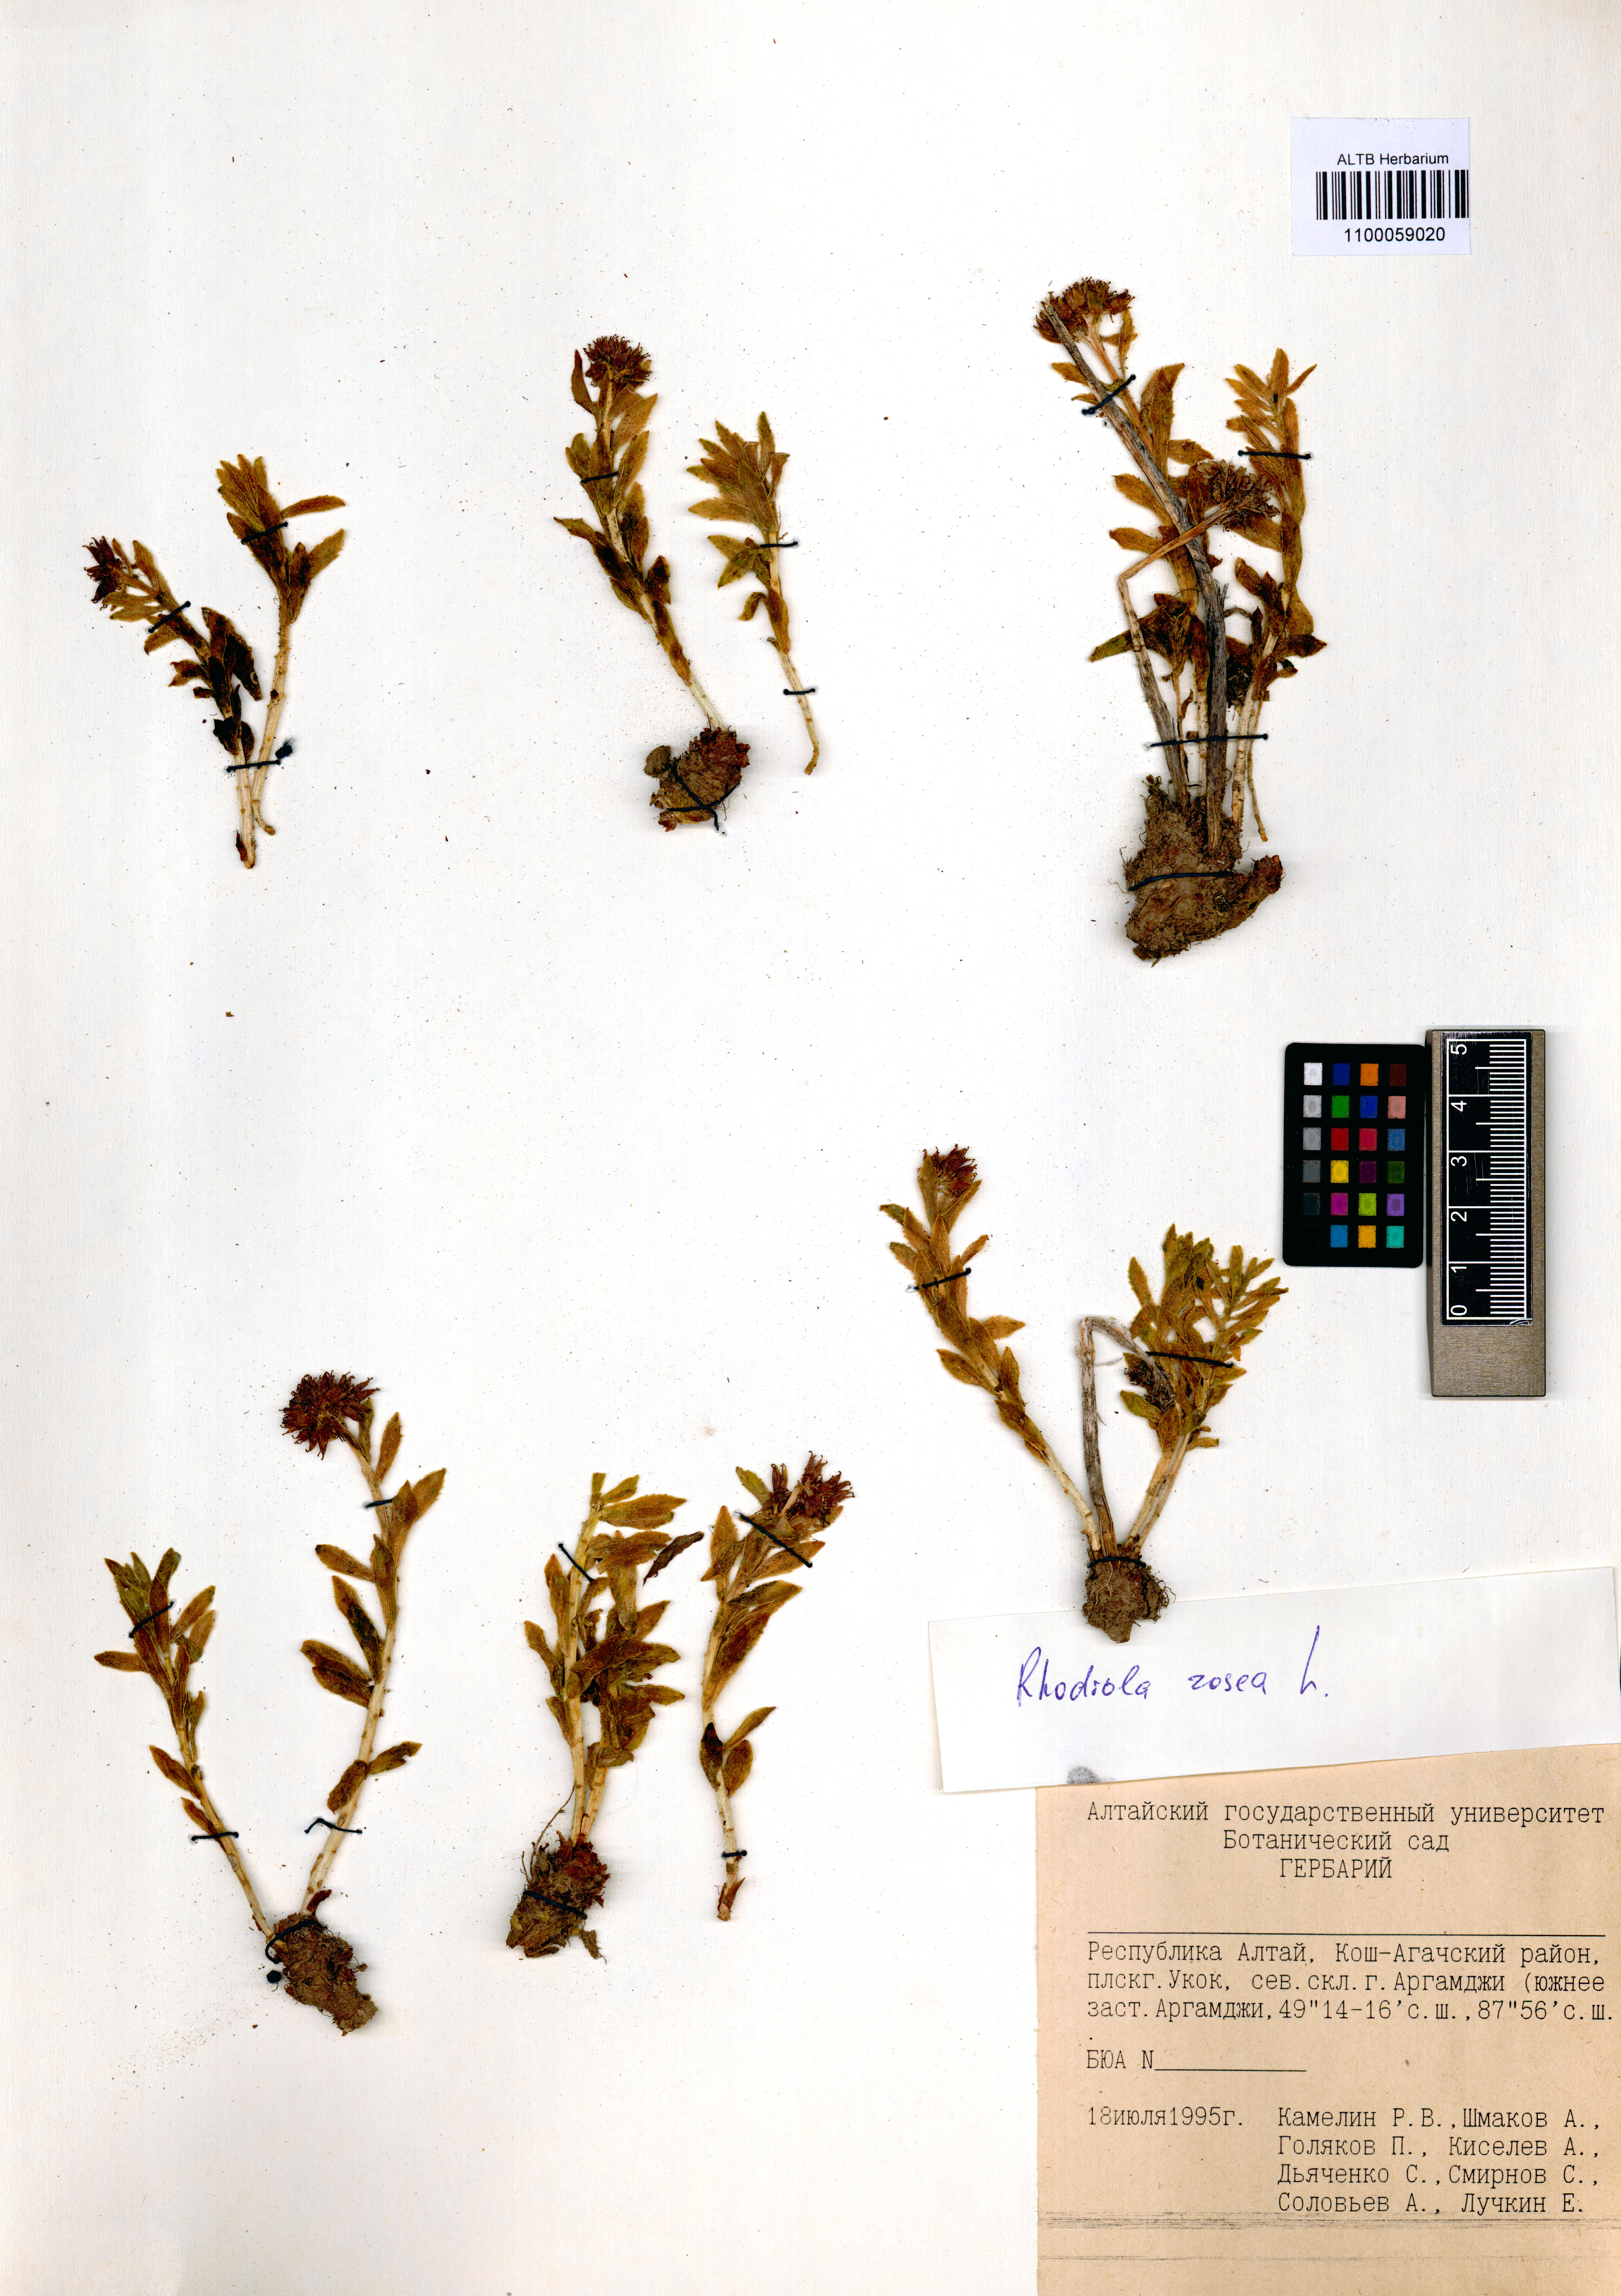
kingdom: Plantae
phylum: Tracheophyta
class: Magnoliopsida
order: Saxifragales
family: Crassulaceae
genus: Rhodiola
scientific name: Rhodiola rosea
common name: Roseroot
